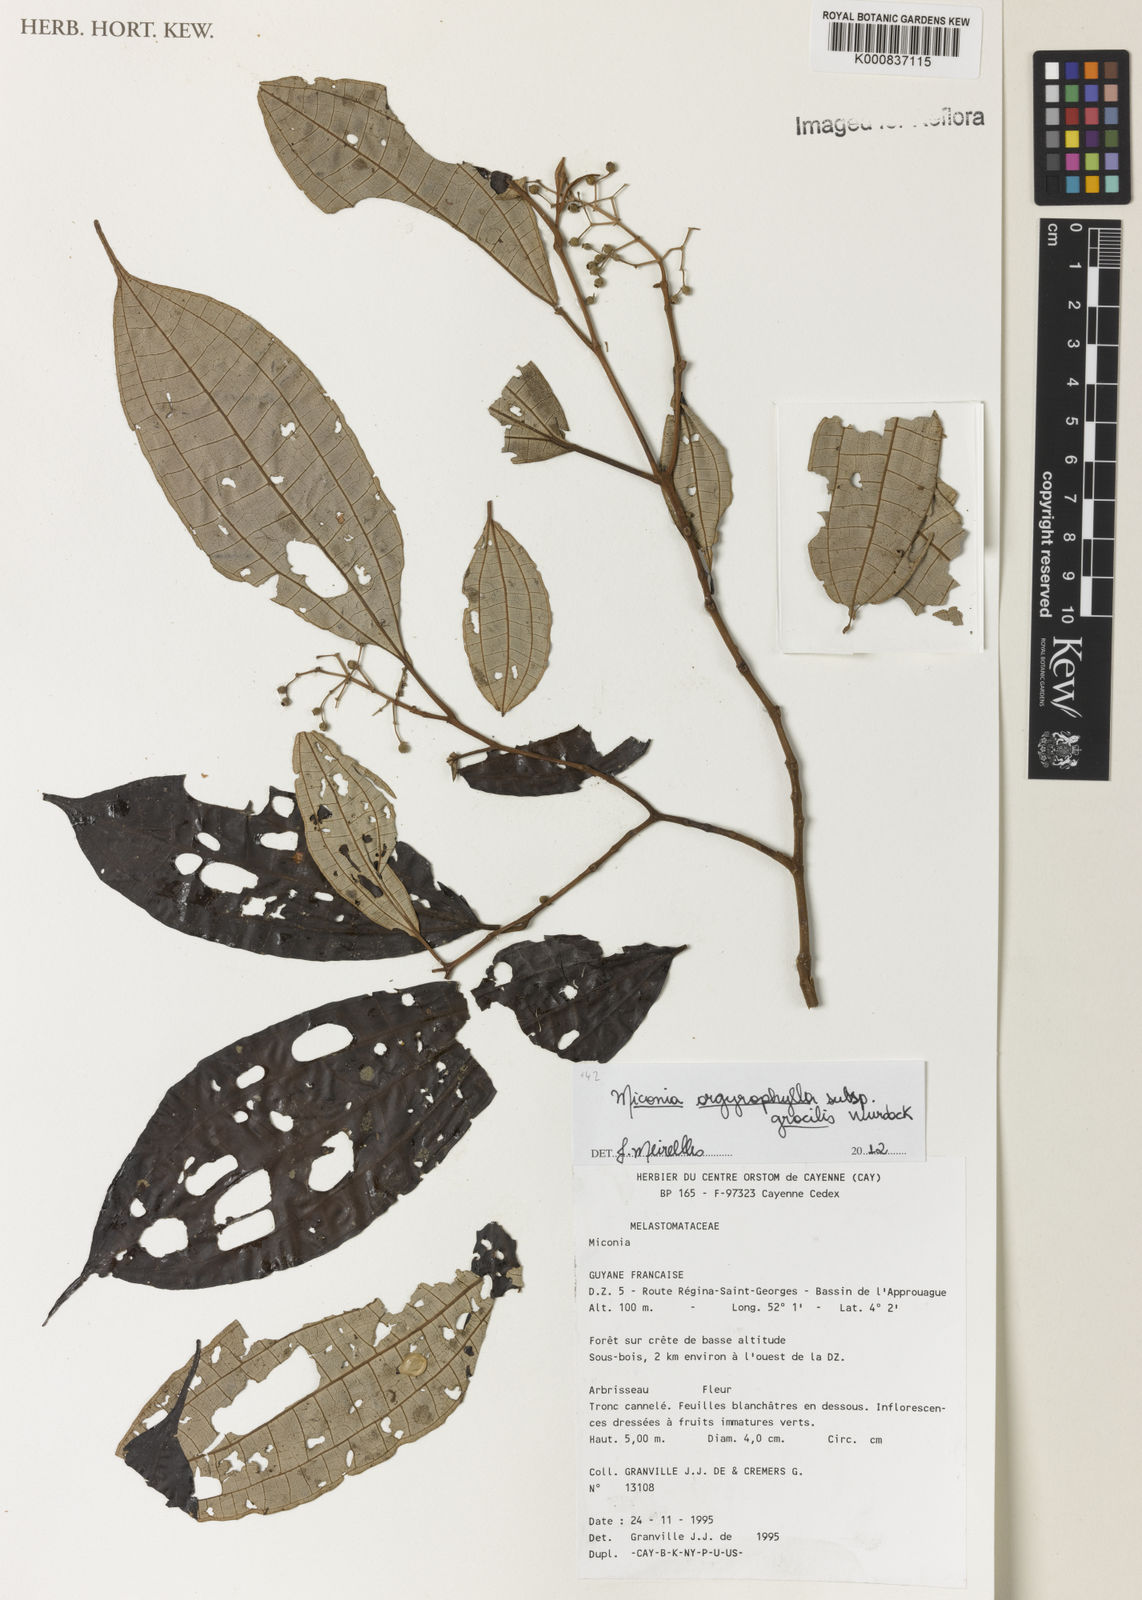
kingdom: Plantae
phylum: Tracheophyta
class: Magnoliopsida
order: Myrtales
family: Melastomataceae
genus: Miconia
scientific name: Miconia argyrophylla
